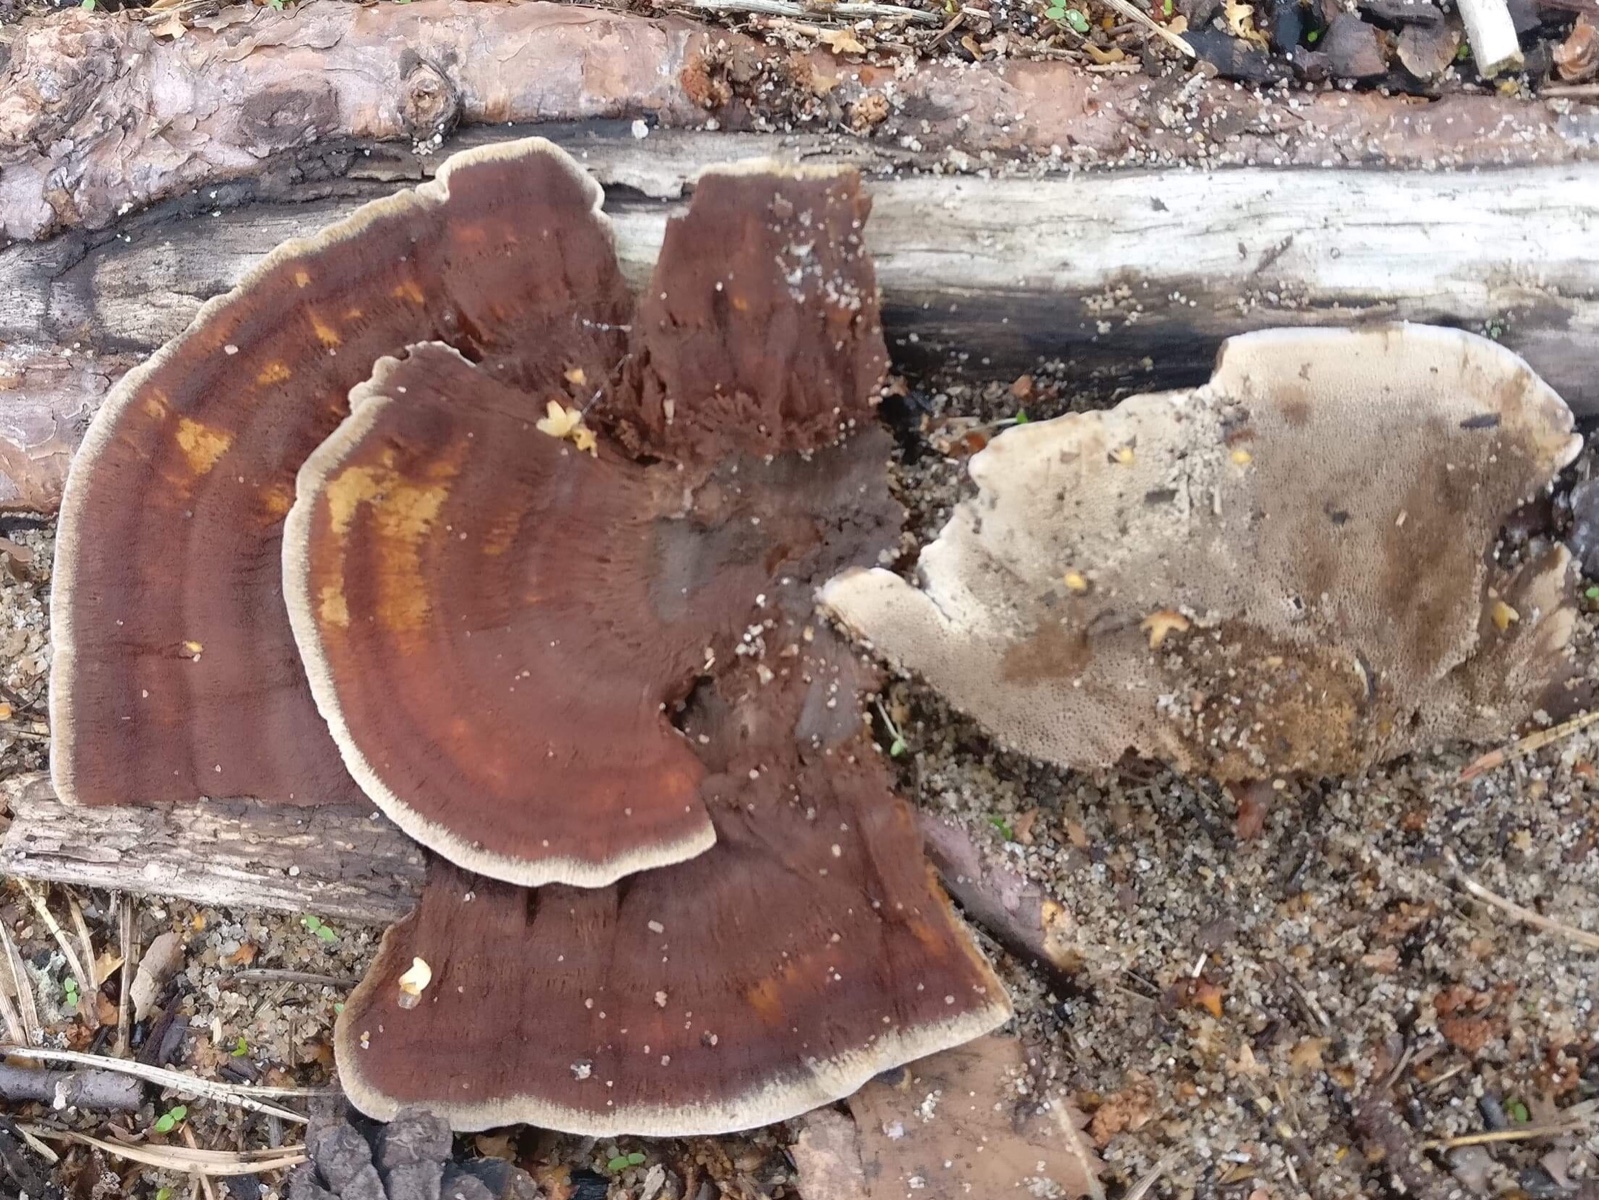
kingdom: Fungi
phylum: Basidiomycota
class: Agaricomycetes
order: Hymenochaetales
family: Hymenochaetaceae
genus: Coltricia
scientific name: Coltricia perennis
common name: almindelig sandporesvamp
